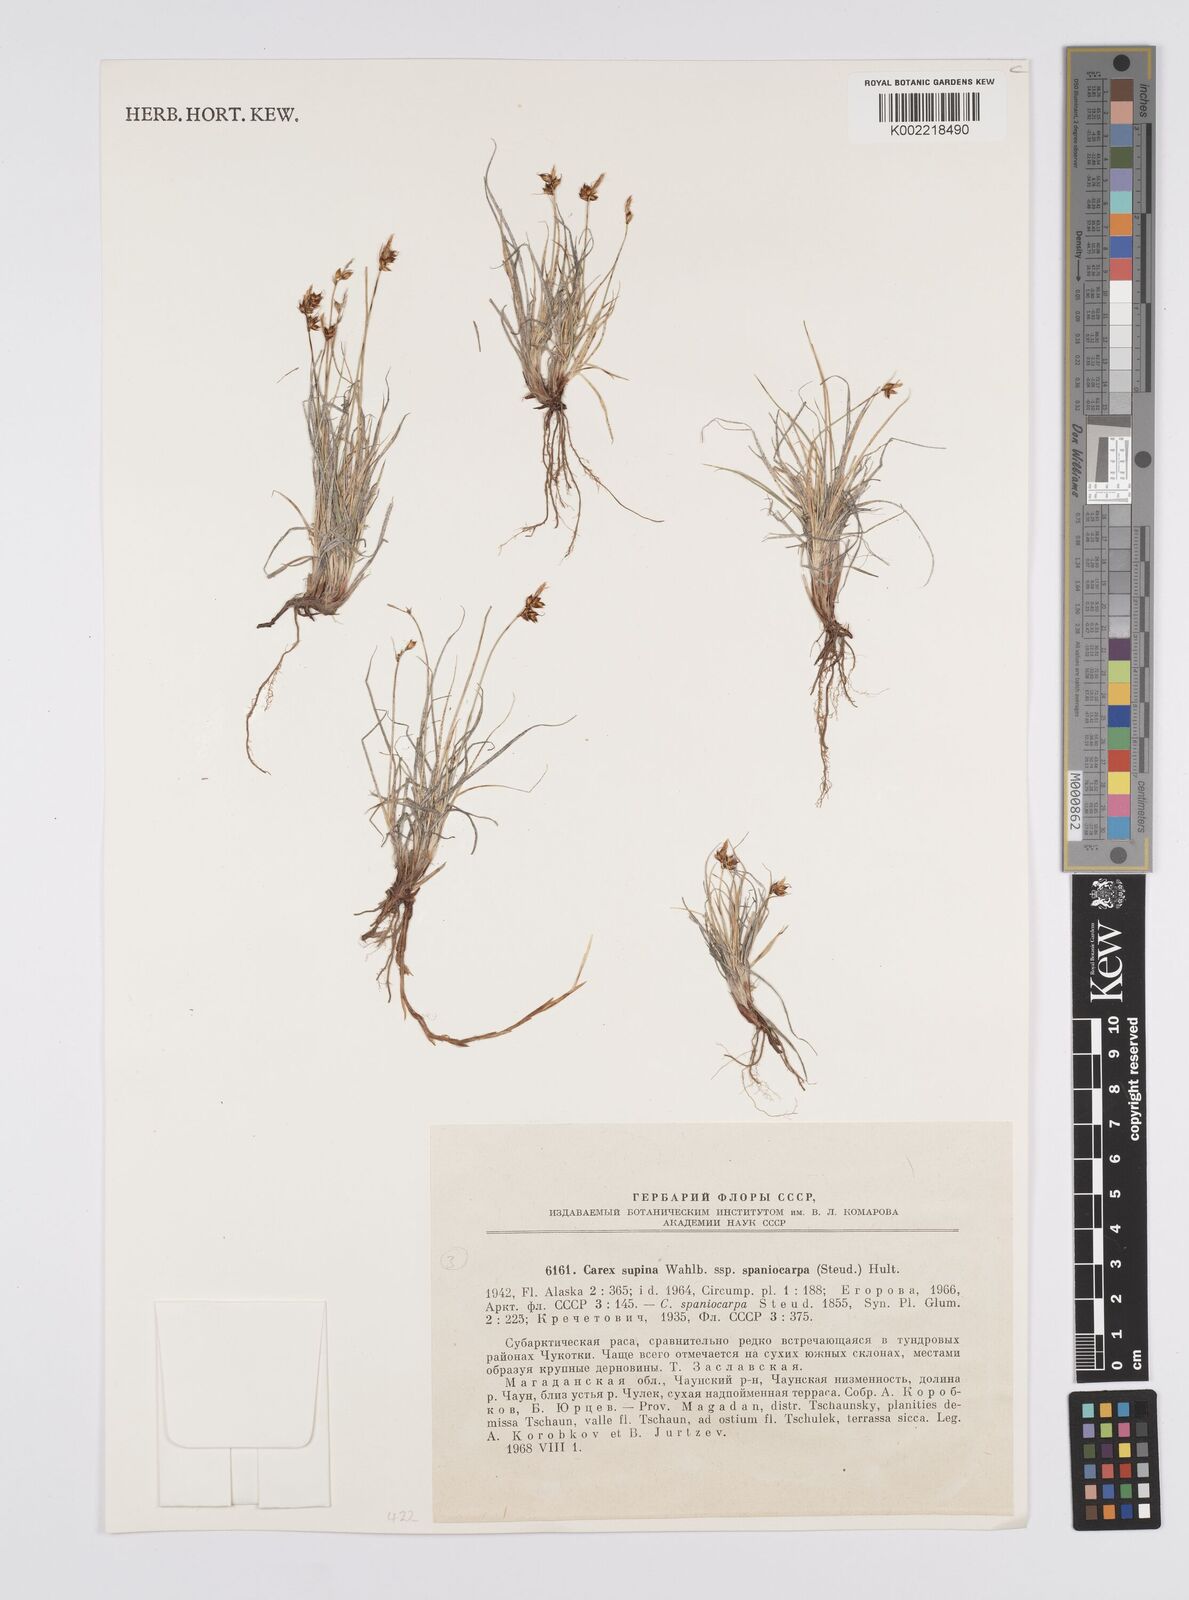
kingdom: Plantae
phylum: Tracheophyta
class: Liliopsida
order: Poales
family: Cyperaceae
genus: Carex
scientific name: Carex supina
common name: Lying-back sedge
